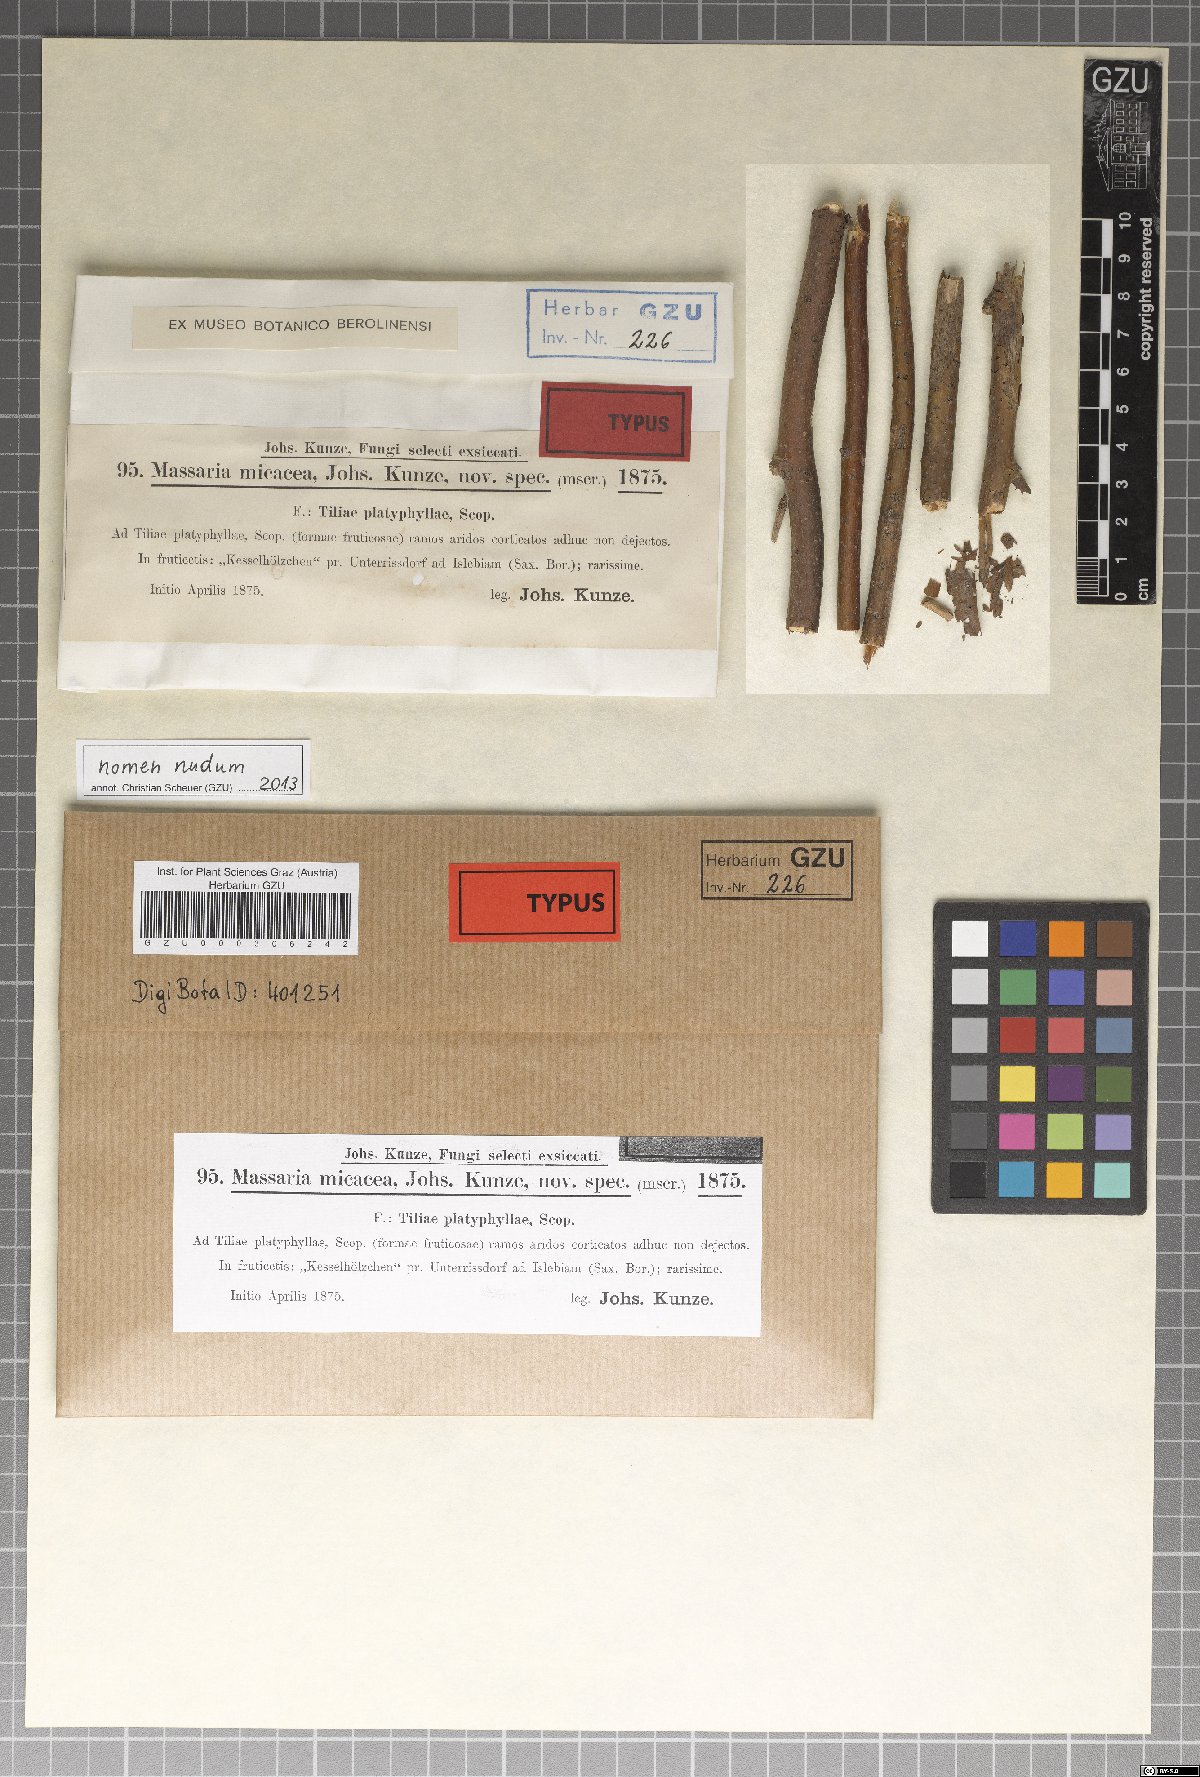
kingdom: Fungi
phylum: Ascomycota
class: Dothideomycetes
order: Pleosporales
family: Lophiostomataceae
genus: Lophiotrema
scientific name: Lophiotrema rubi ter
